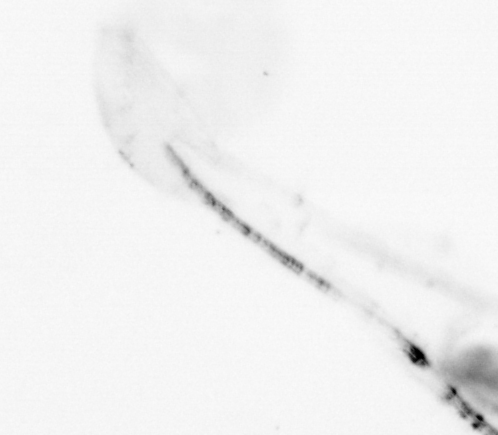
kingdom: Animalia
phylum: Chaetognatha
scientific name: Chaetognatha
